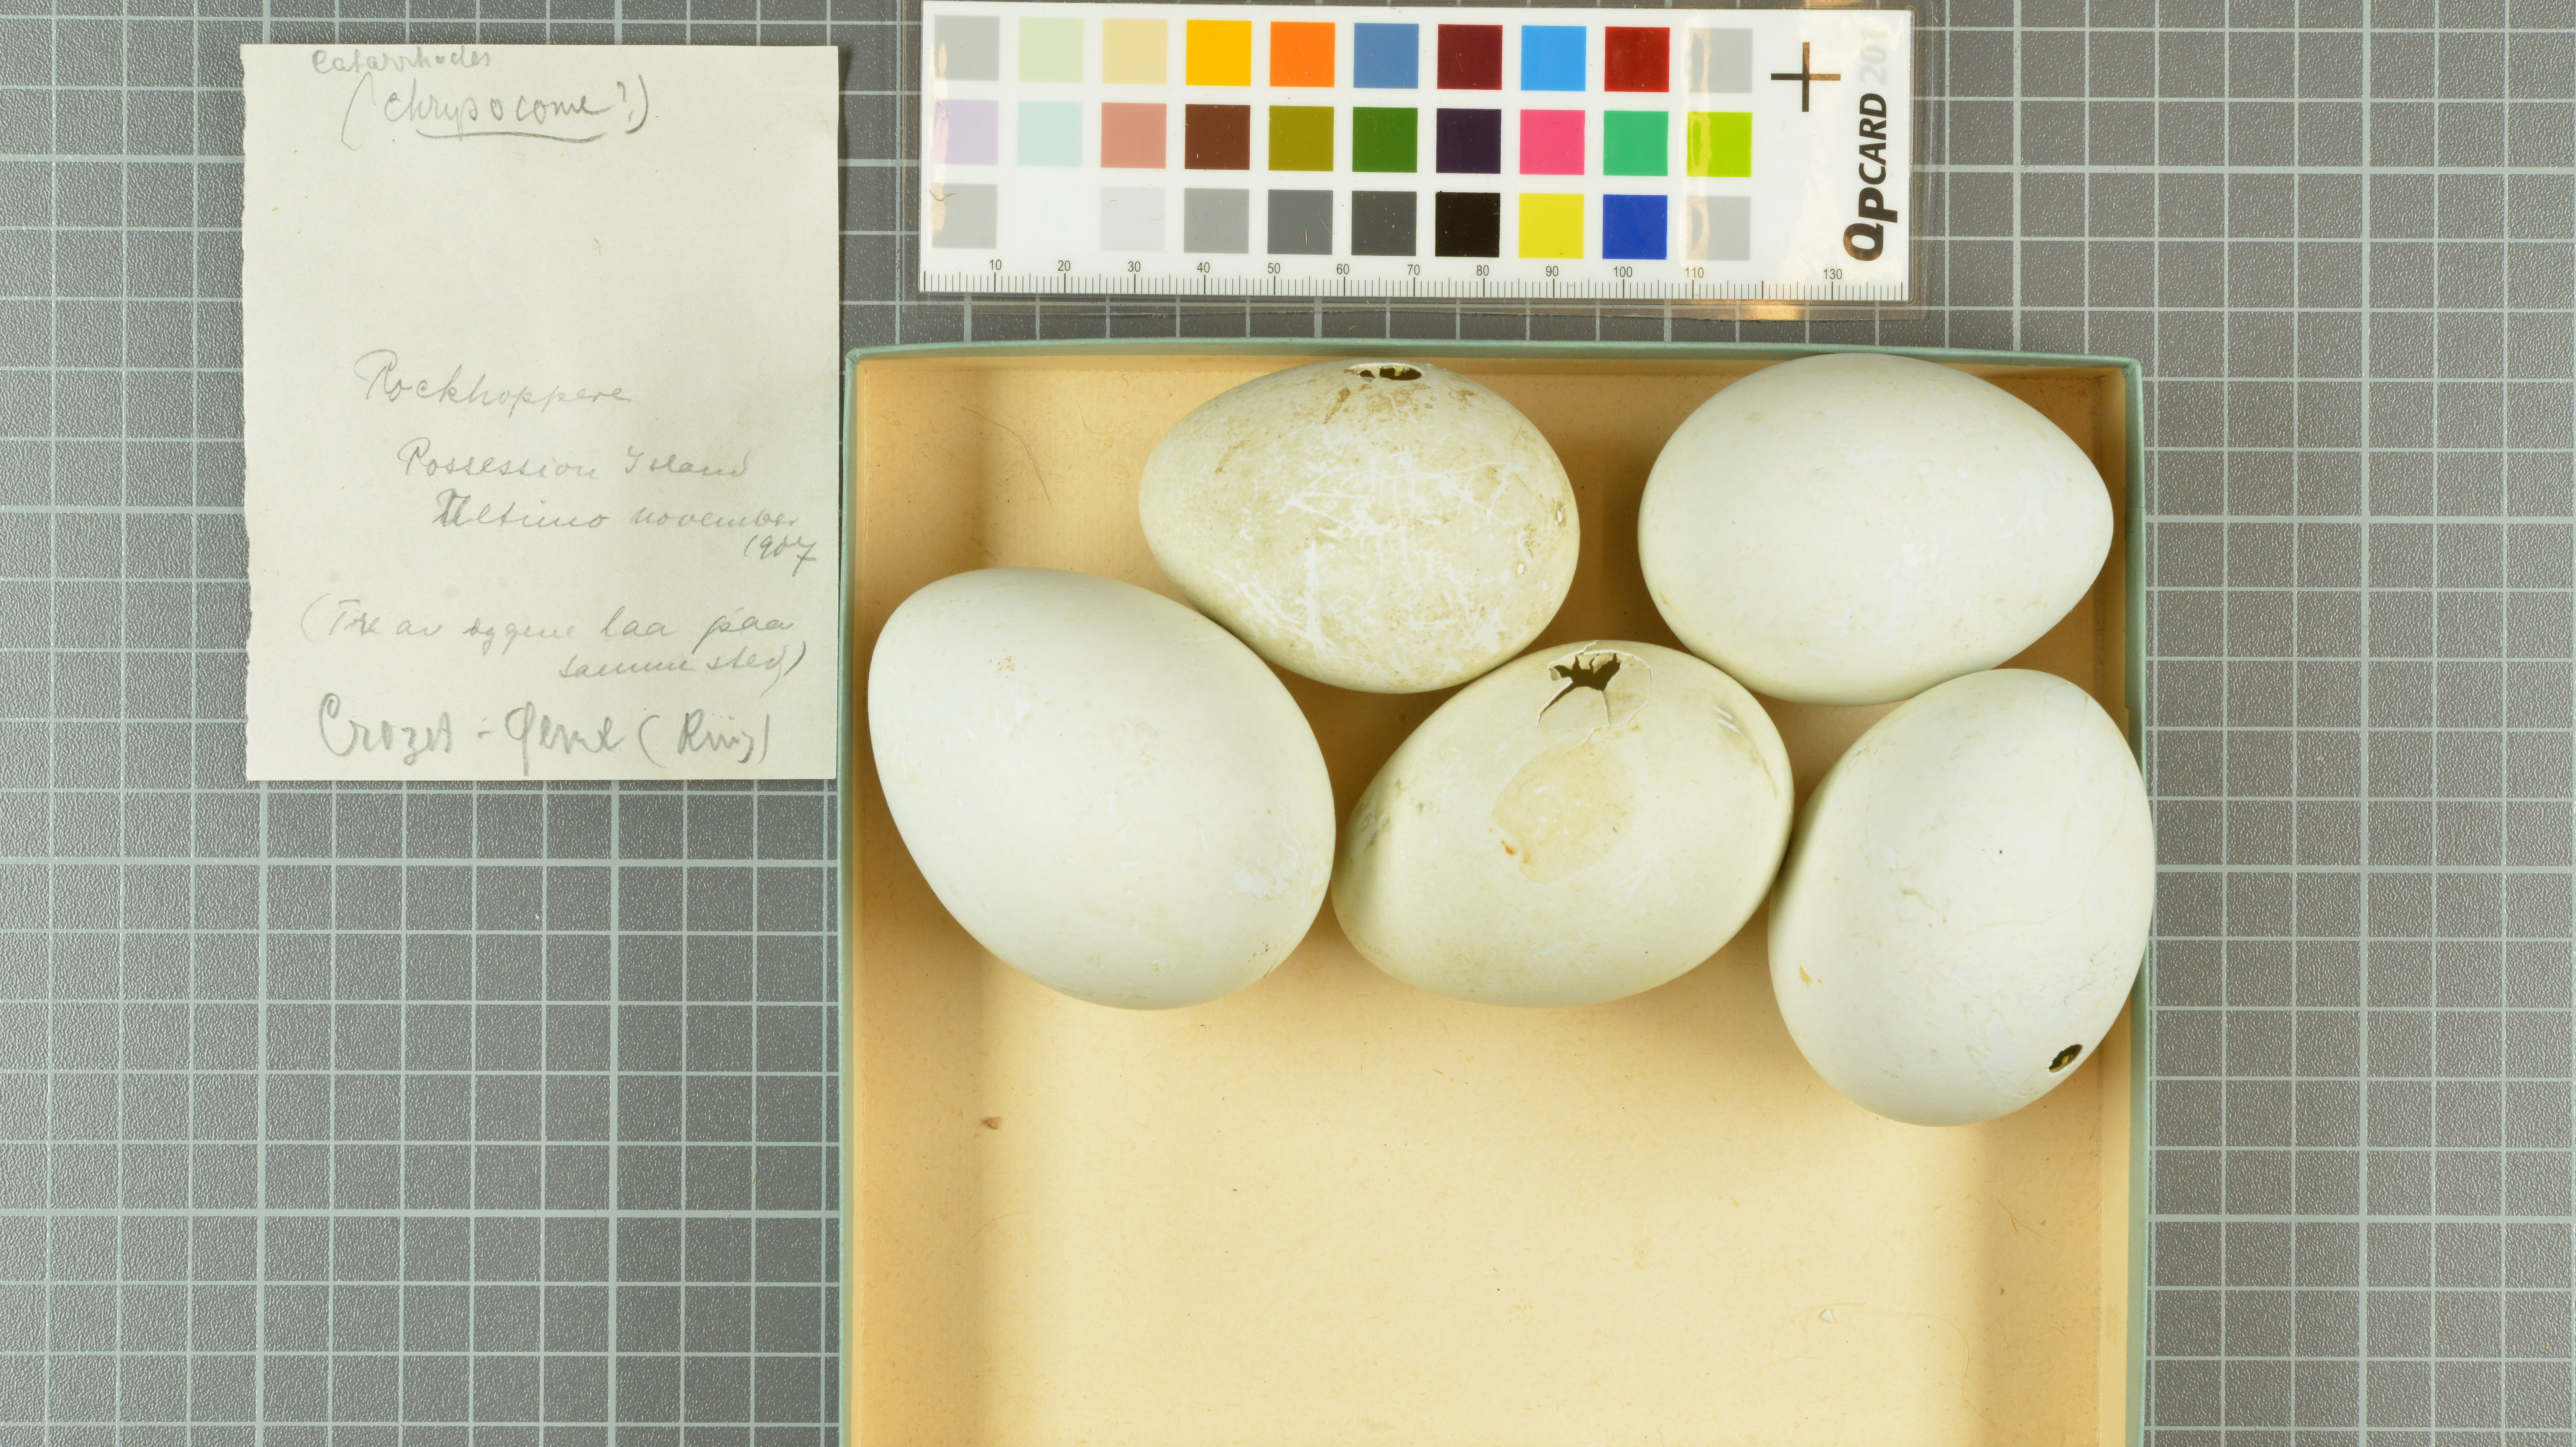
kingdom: Animalia
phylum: Chordata
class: Aves
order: Sphenisciformes
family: Spheniscidae
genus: Eudyptes
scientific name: Eudyptes chrysocome
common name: Southern rockhopper penguin
